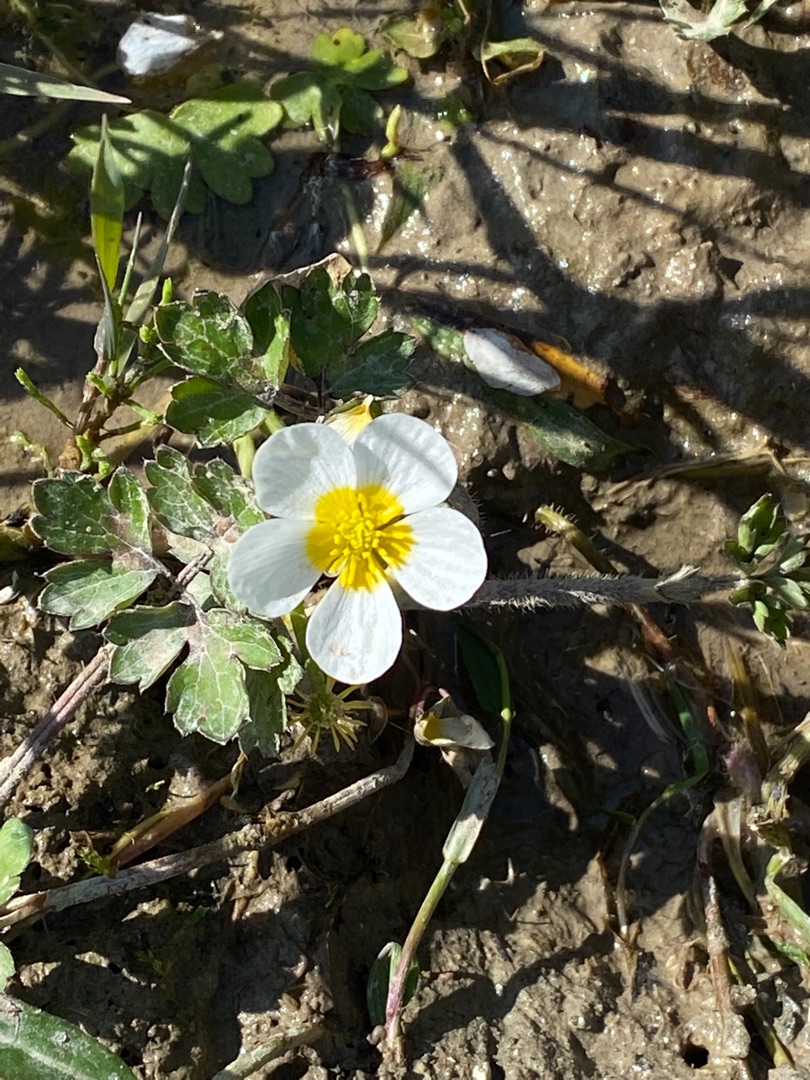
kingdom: Plantae
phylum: Tracheophyta
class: Magnoliopsida
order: Ranunculales
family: Ranunculaceae
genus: Ranunculus
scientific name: Ranunculus peltatus
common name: Storblomstret vandranunkel
